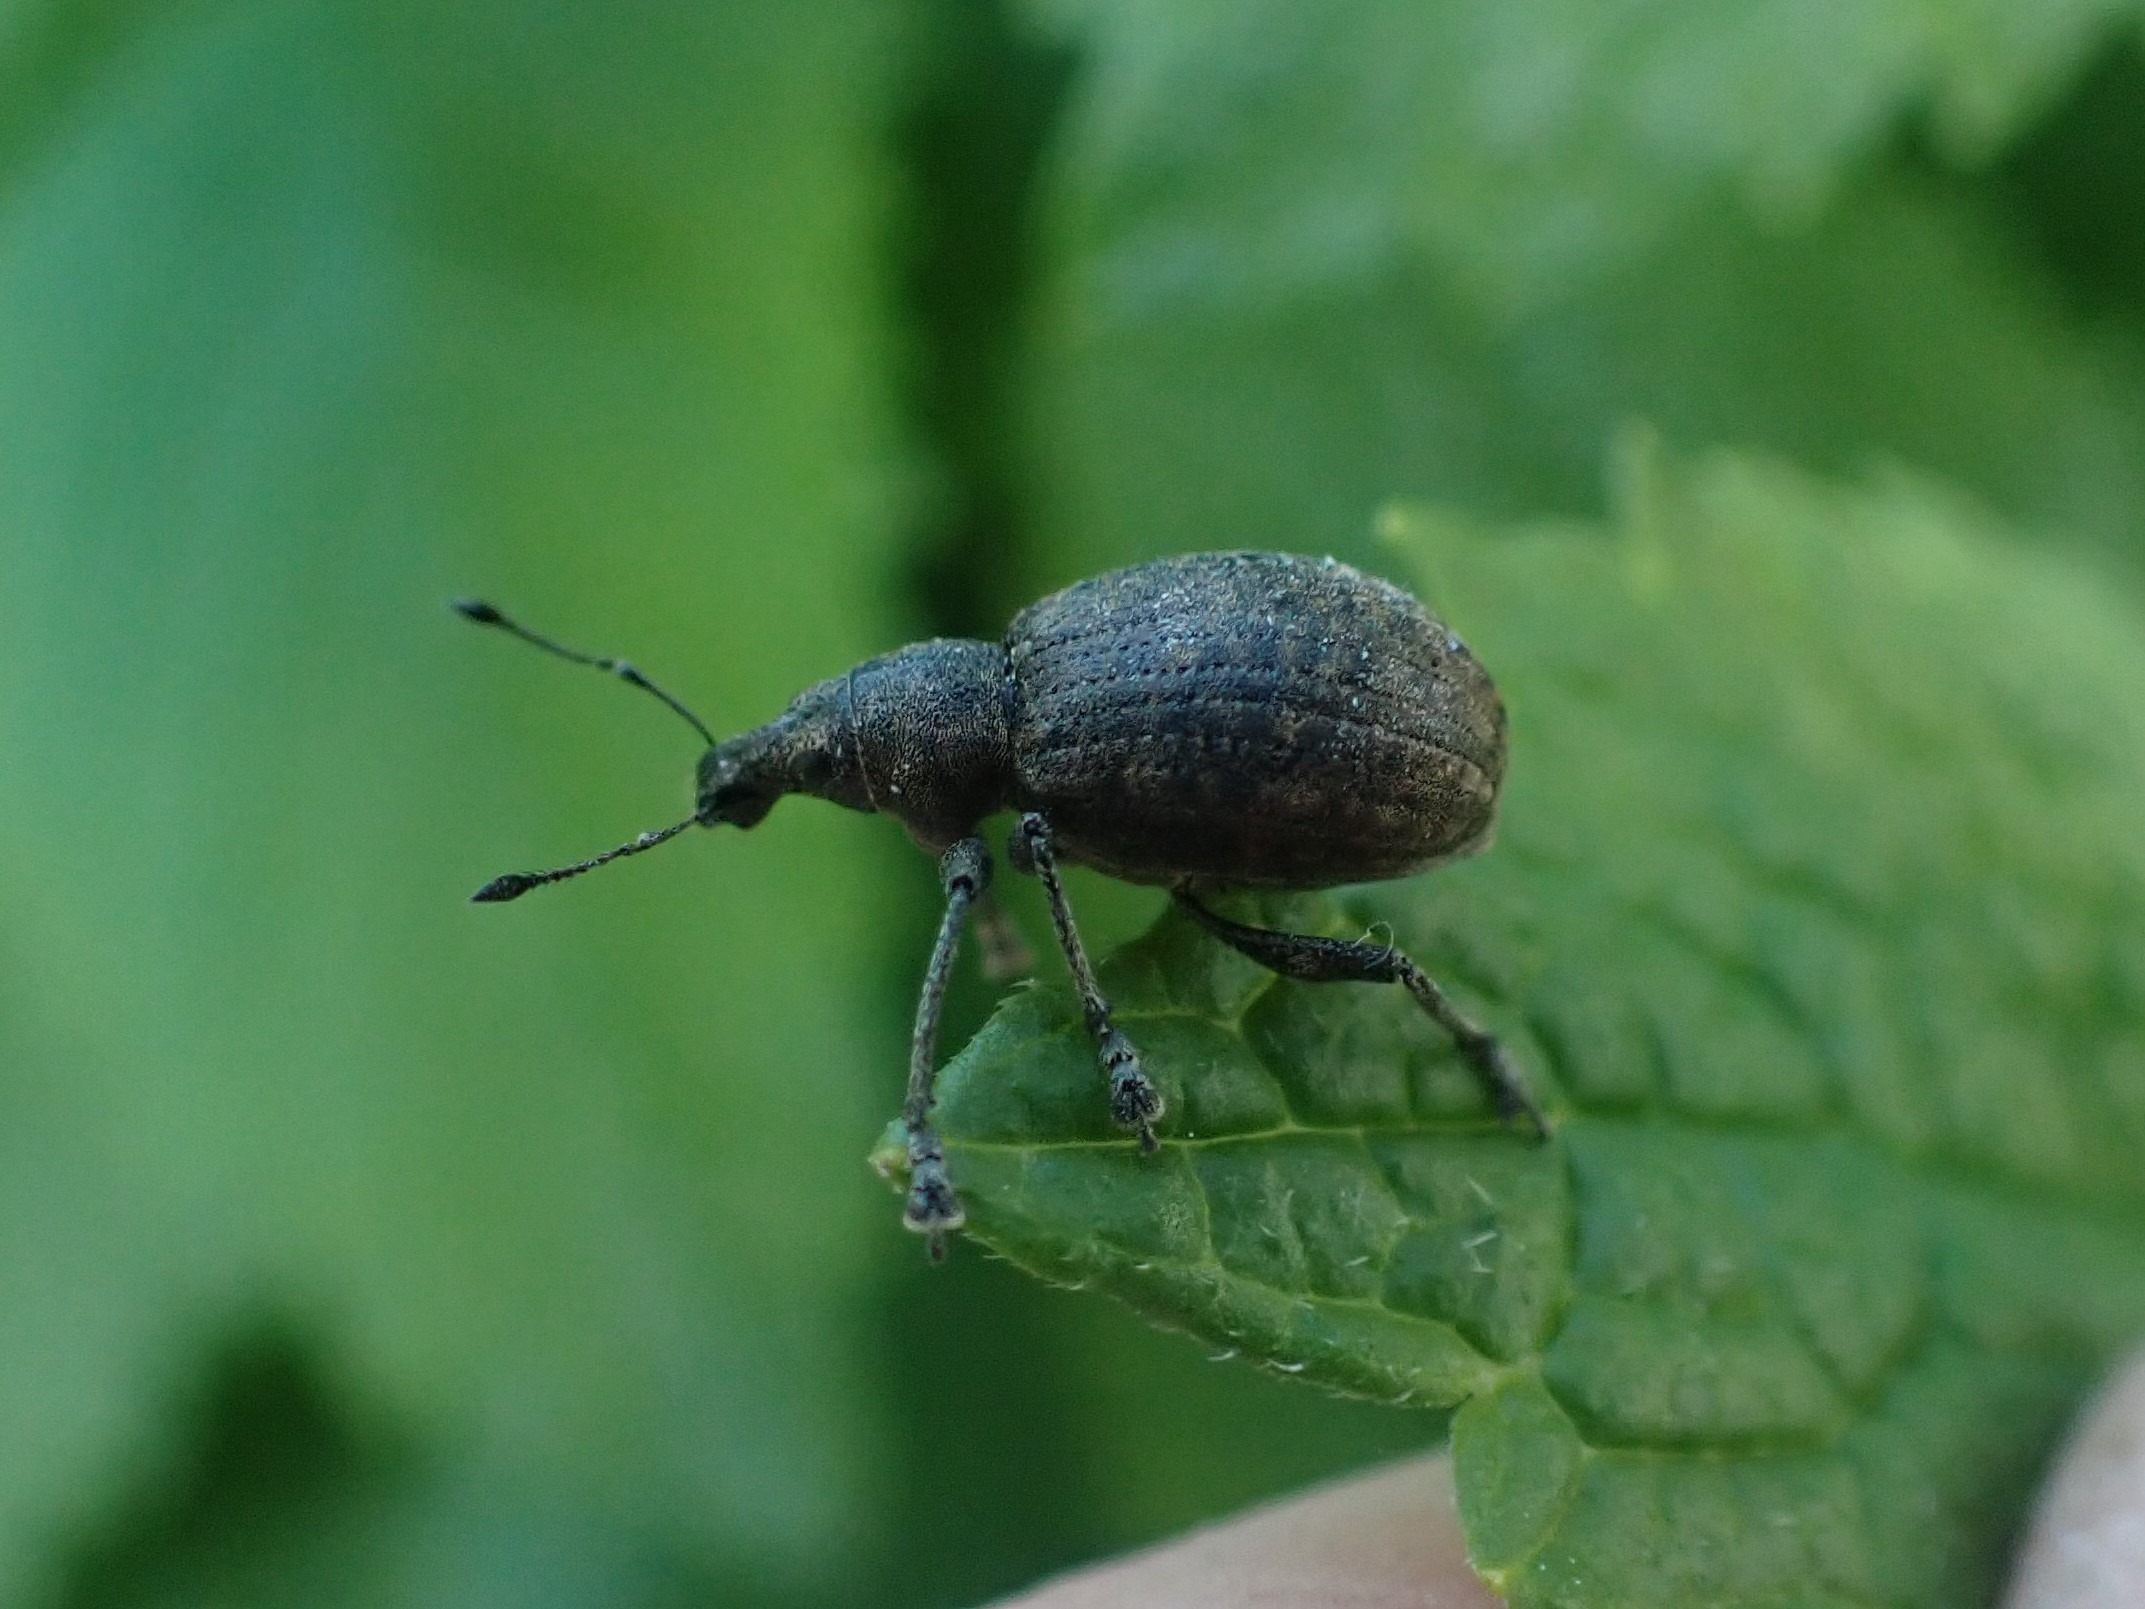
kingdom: Animalia
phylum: Arthropoda
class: Insecta
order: Coleoptera
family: Curculionidae
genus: Liophloeus
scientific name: Liophloeus tessulatus
